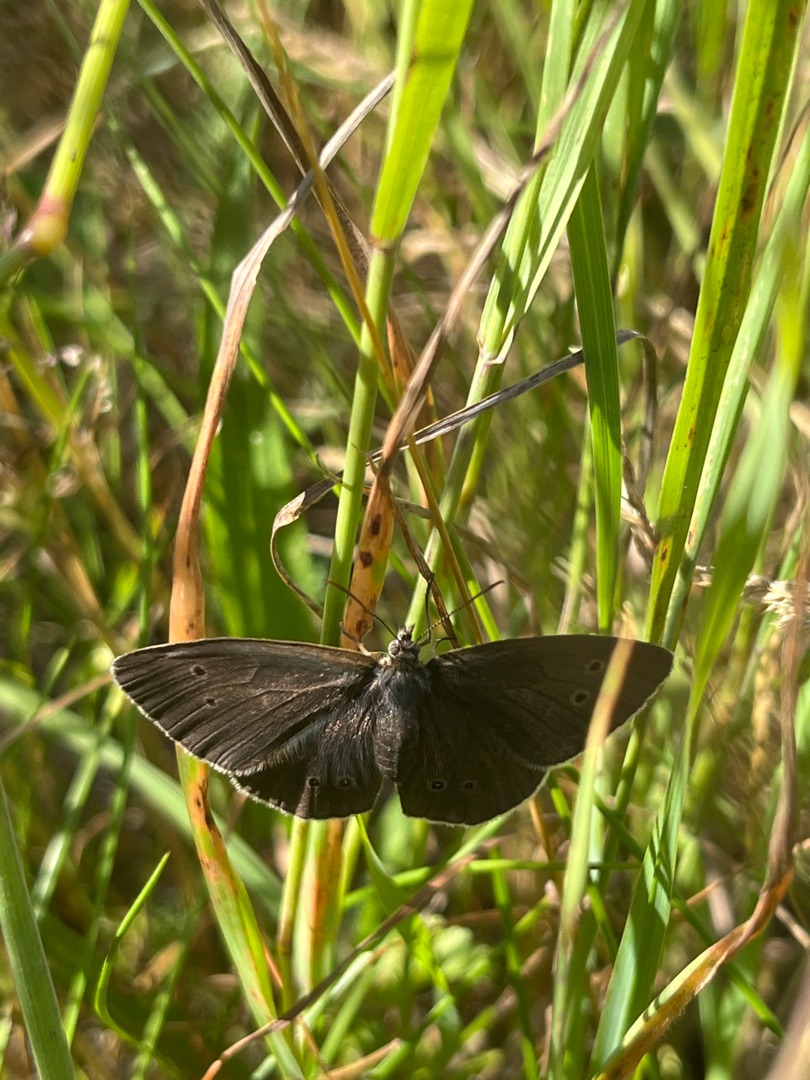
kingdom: Animalia
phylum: Arthropoda
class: Insecta
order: Lepidoptera
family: Nymphalidae
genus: Aphantopus
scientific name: Aphantopus hyperantus
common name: Engrandøje
